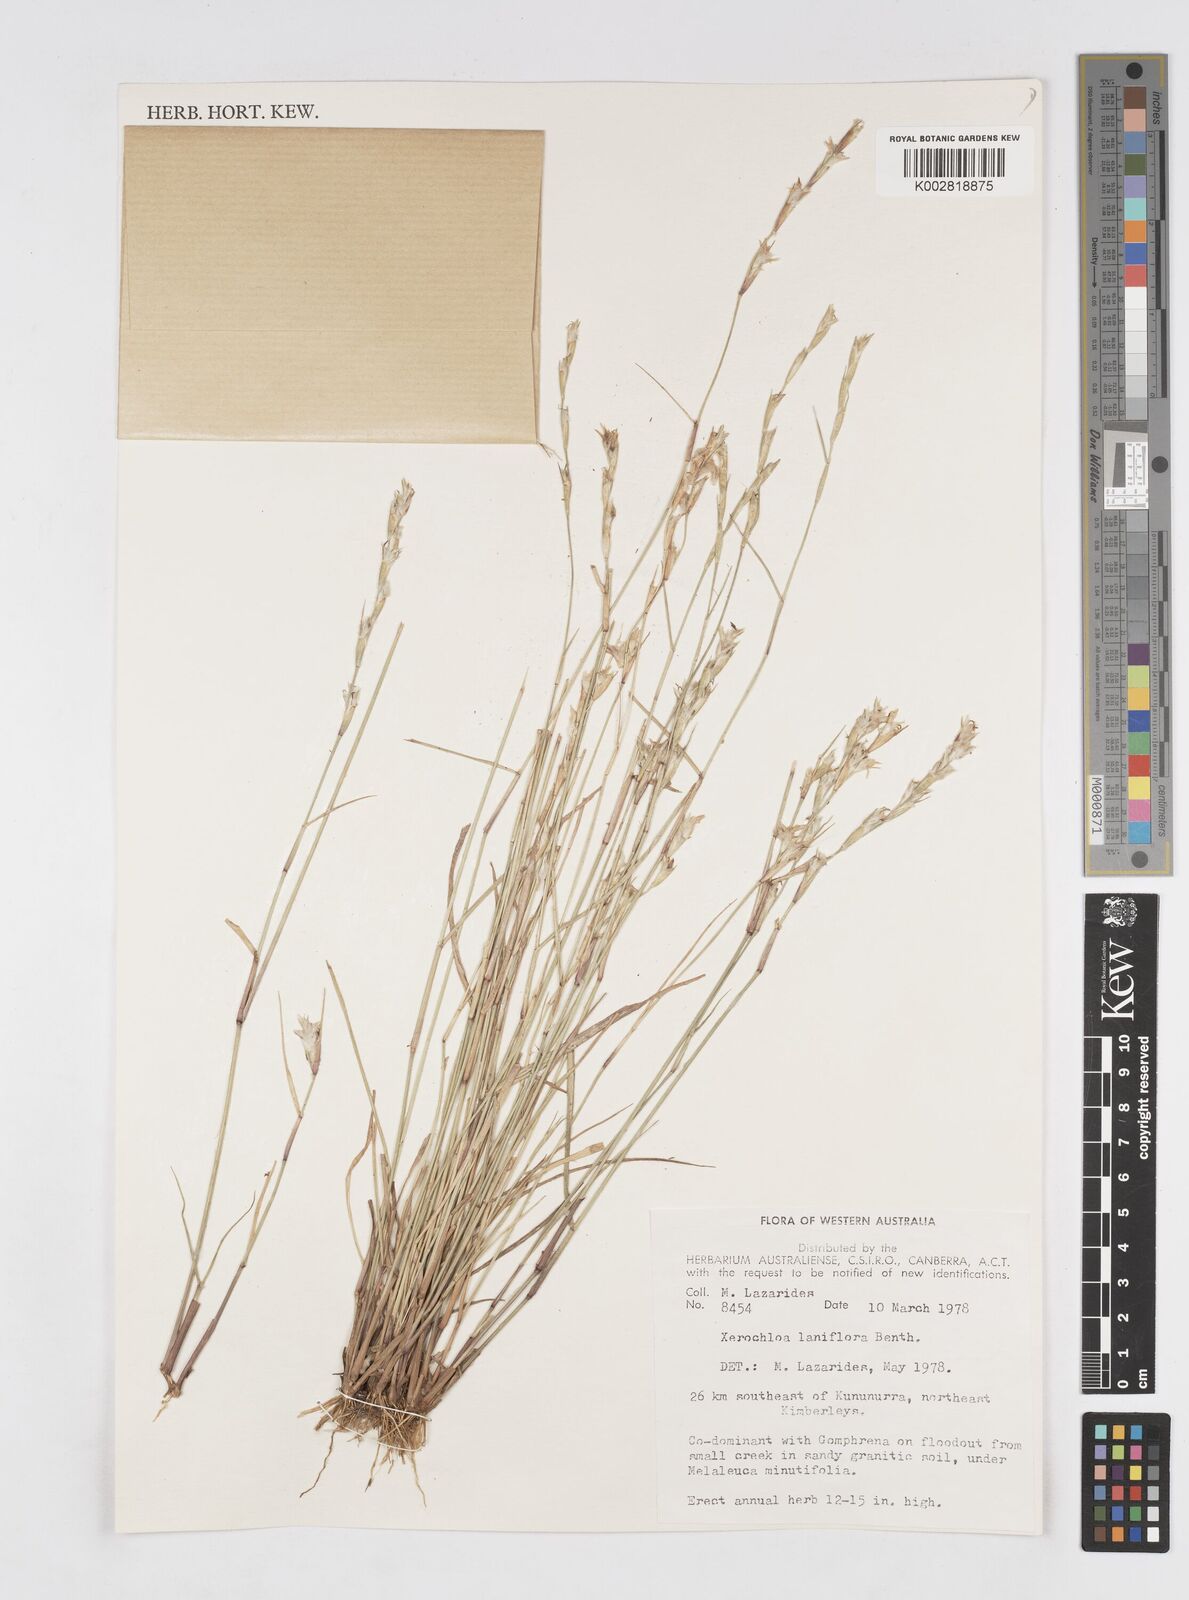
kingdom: Plantae
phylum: Tracheophyta
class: Liliopsida
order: Poales
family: Poaceae
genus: Xerochloa
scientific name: Xerochloa laniflora
